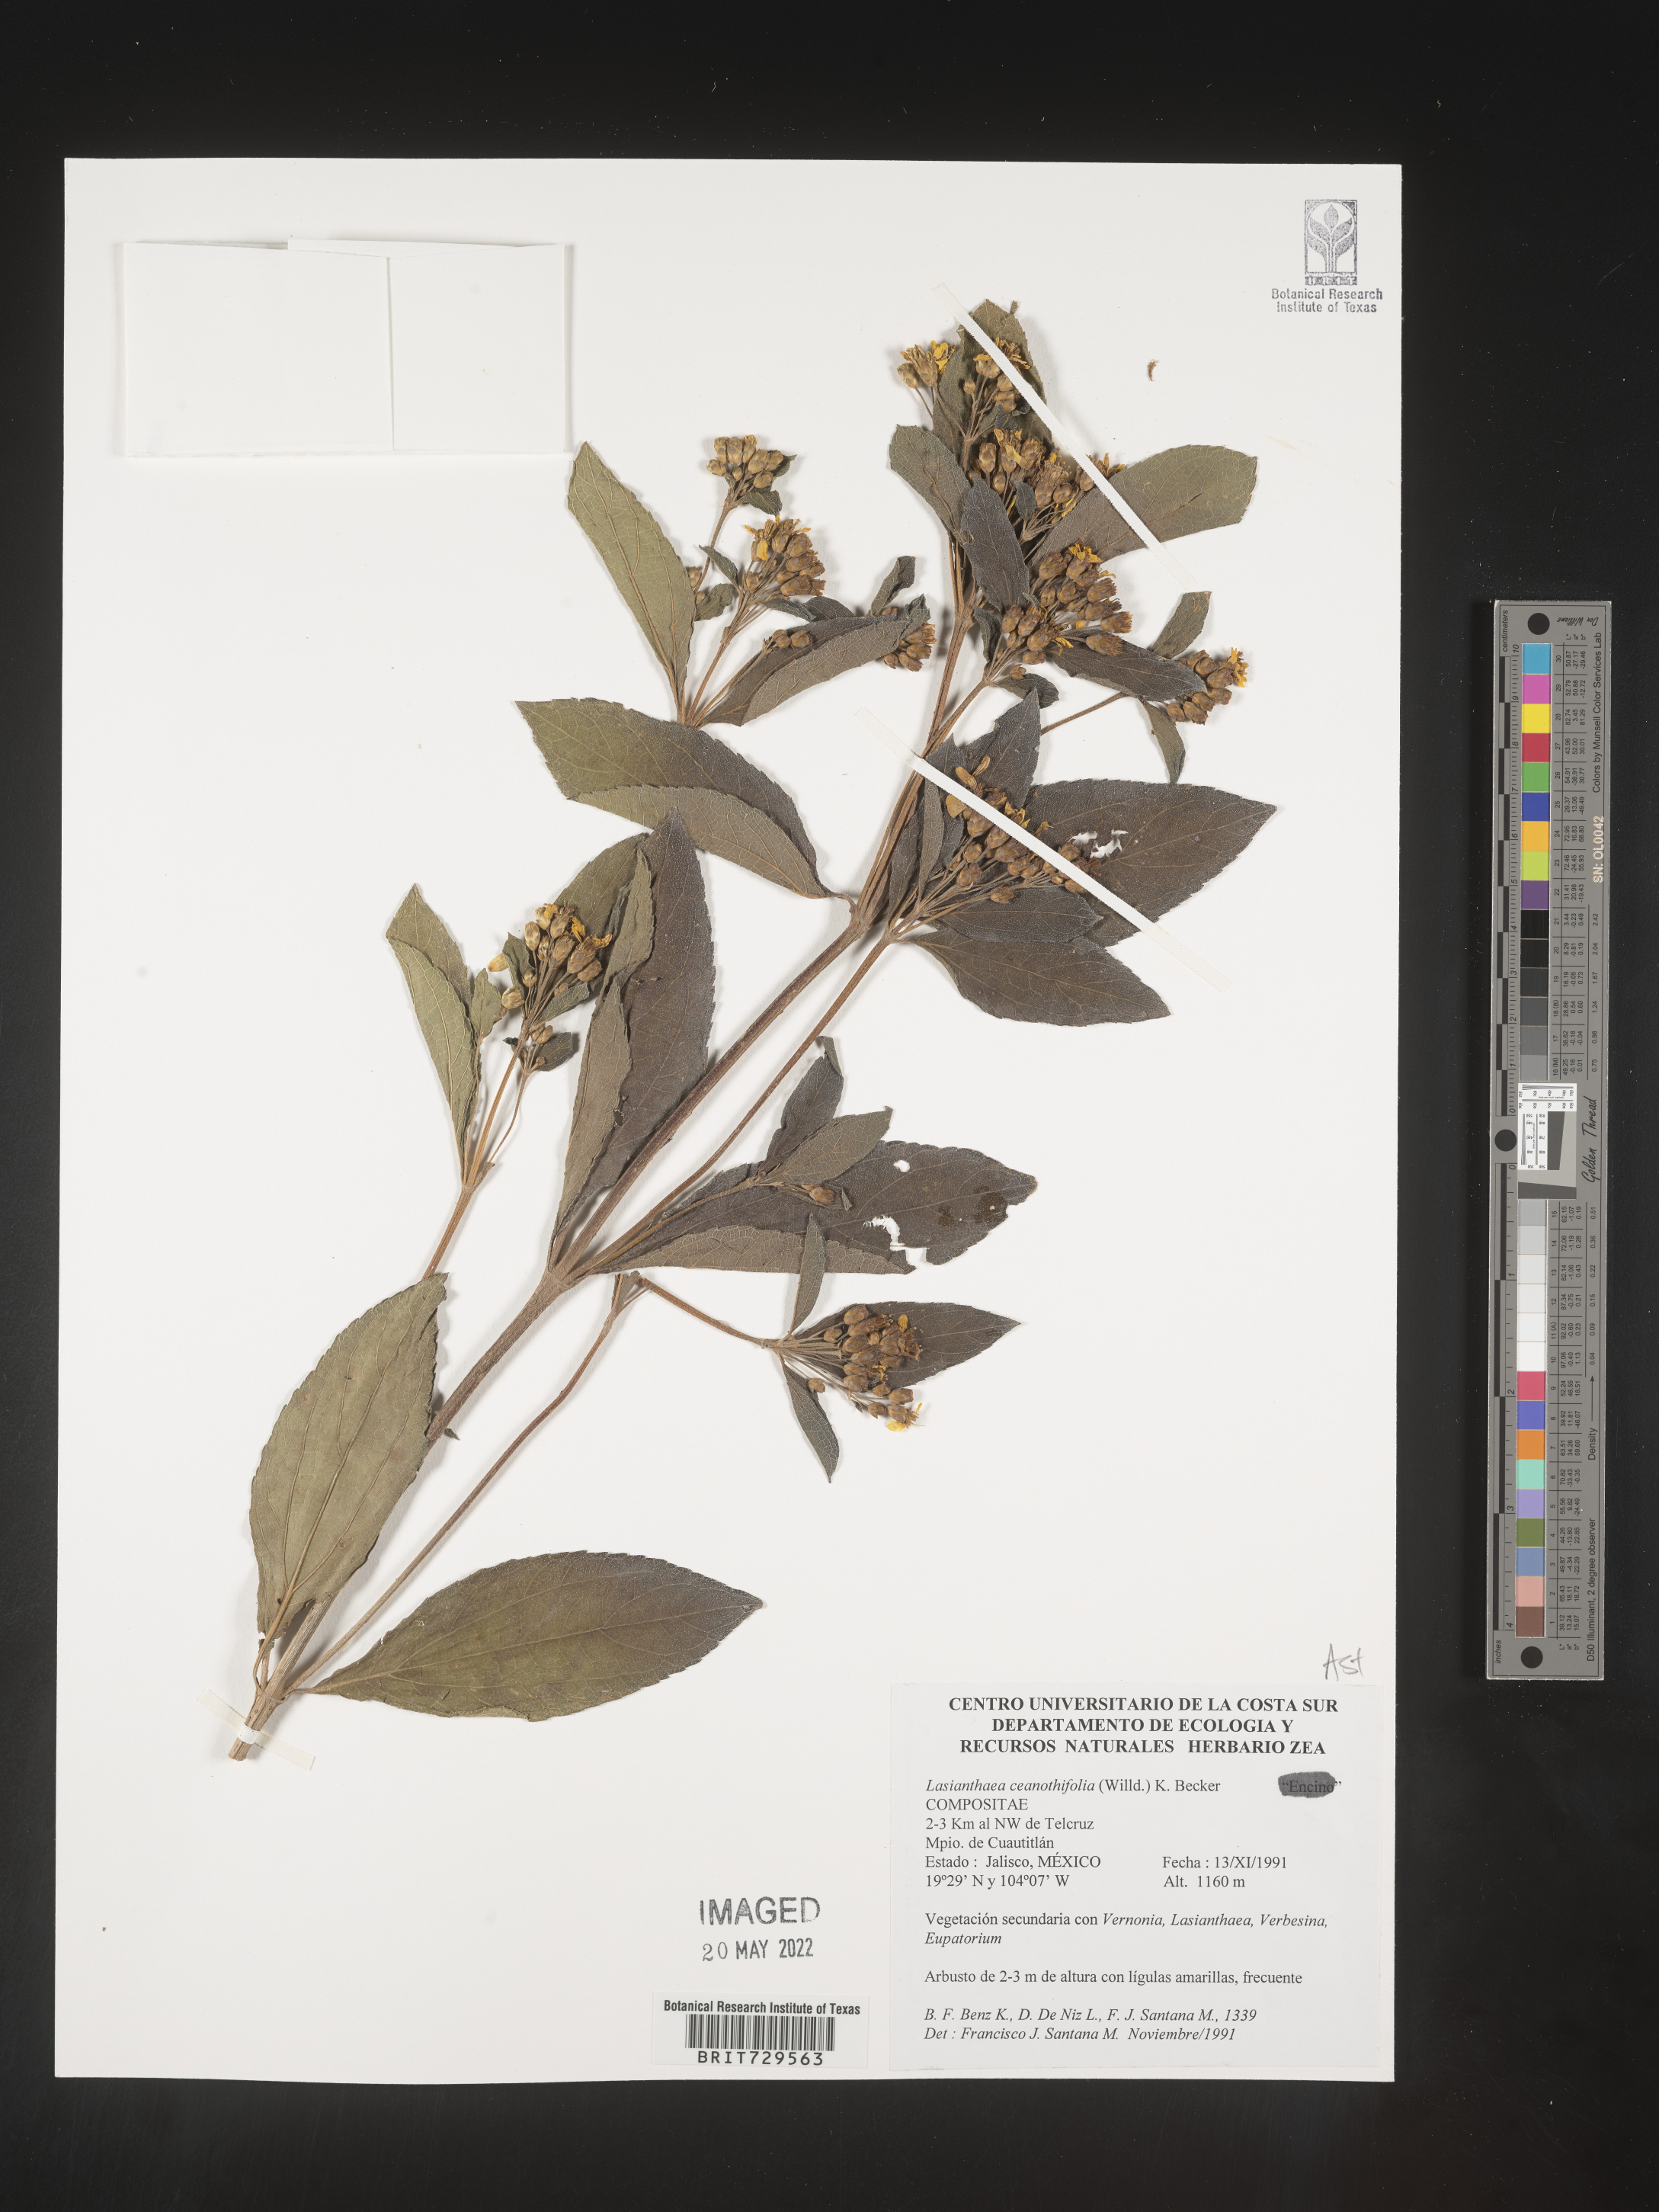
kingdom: Plantae
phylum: Tracheophyta
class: Magnoliopsida
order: Asterales
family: Asteraceae
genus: Lasianthaea
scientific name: Lasianthaea
